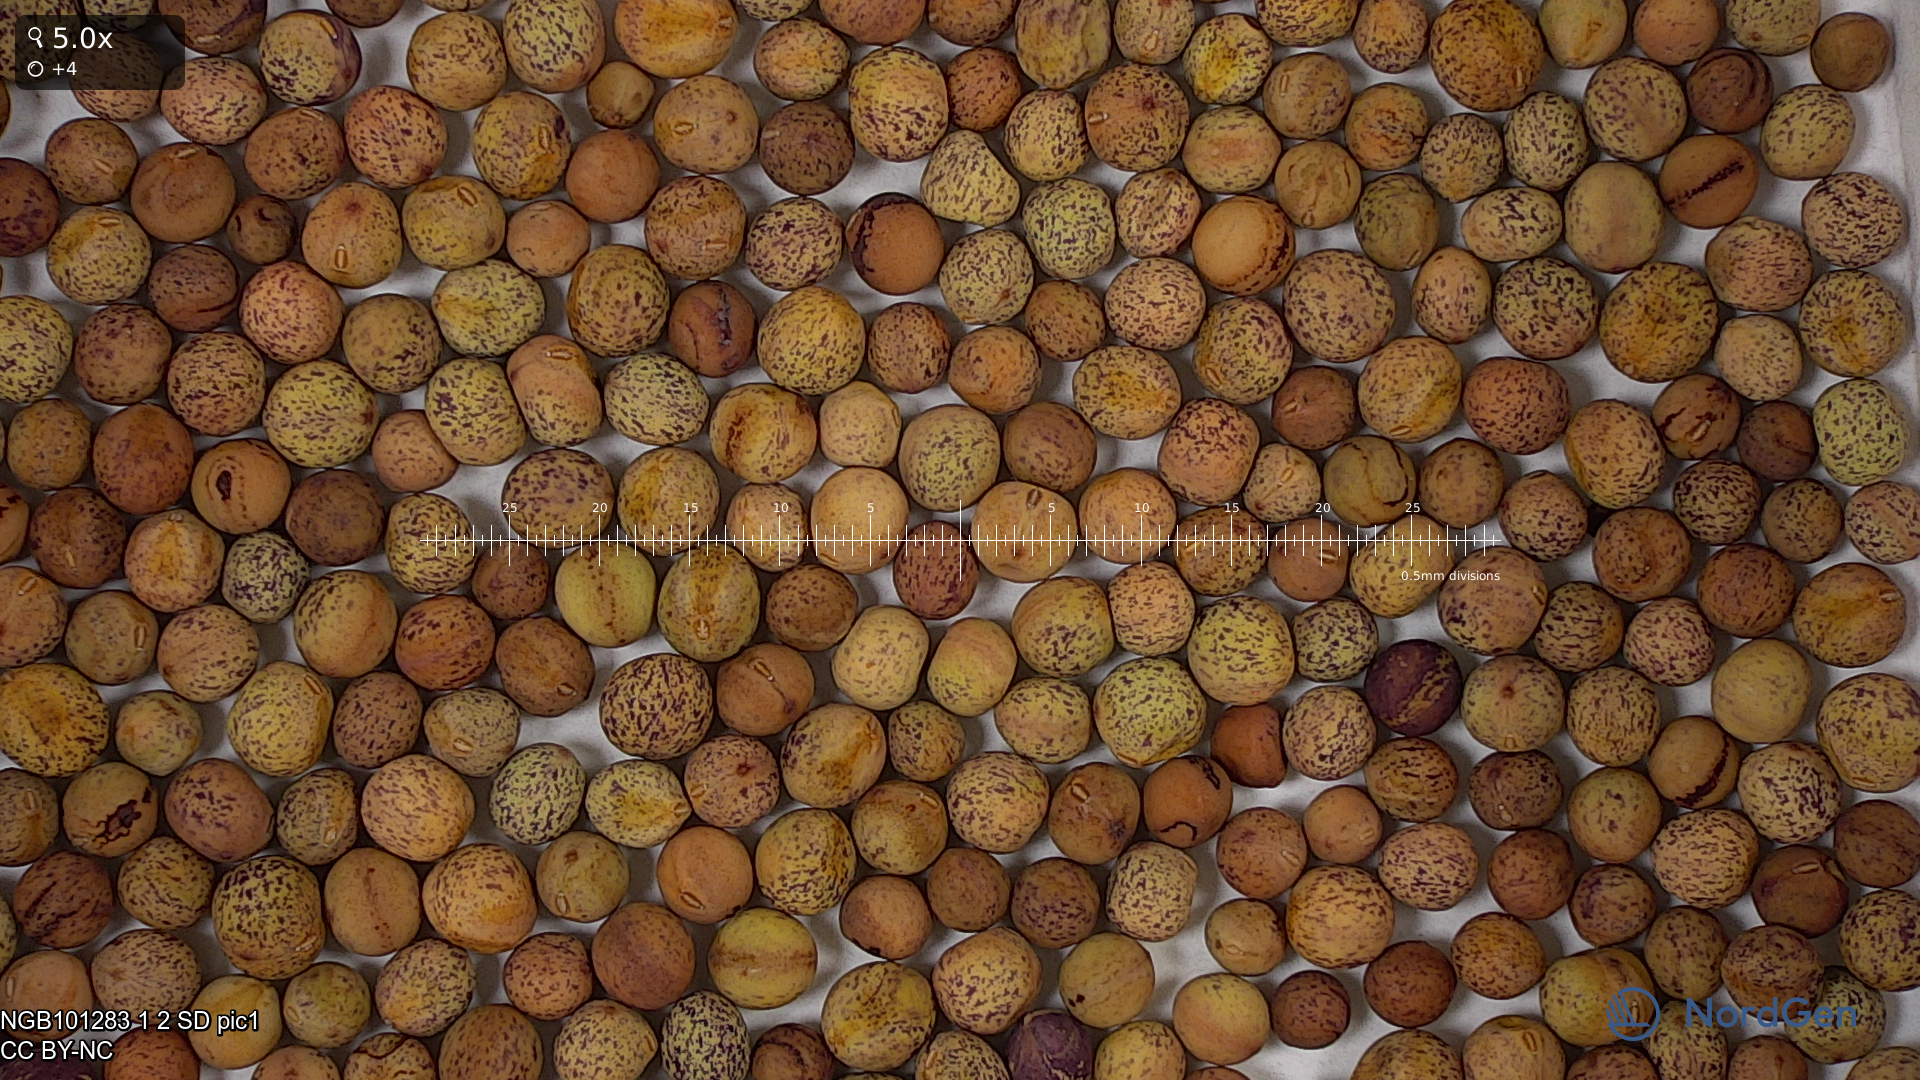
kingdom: Plantae
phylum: Tracheophyta
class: Magnoliopsida
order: Fabales
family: Fabaceae
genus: Lathyrus
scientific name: Lathyrus oleraceus
